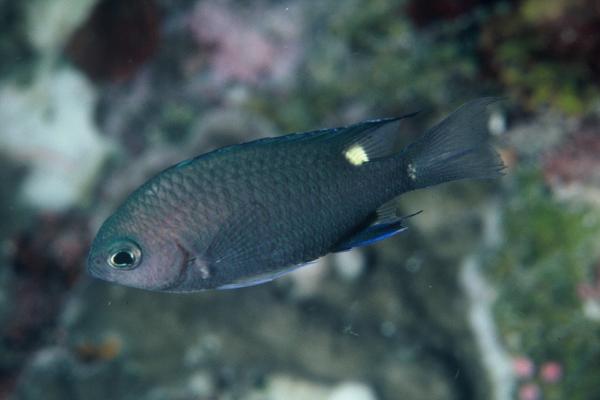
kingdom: Animalia
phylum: Chordata
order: Perciformes
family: Pomacentridae
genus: Chromis
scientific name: Chromis elerae
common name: Twin-spot chromis
